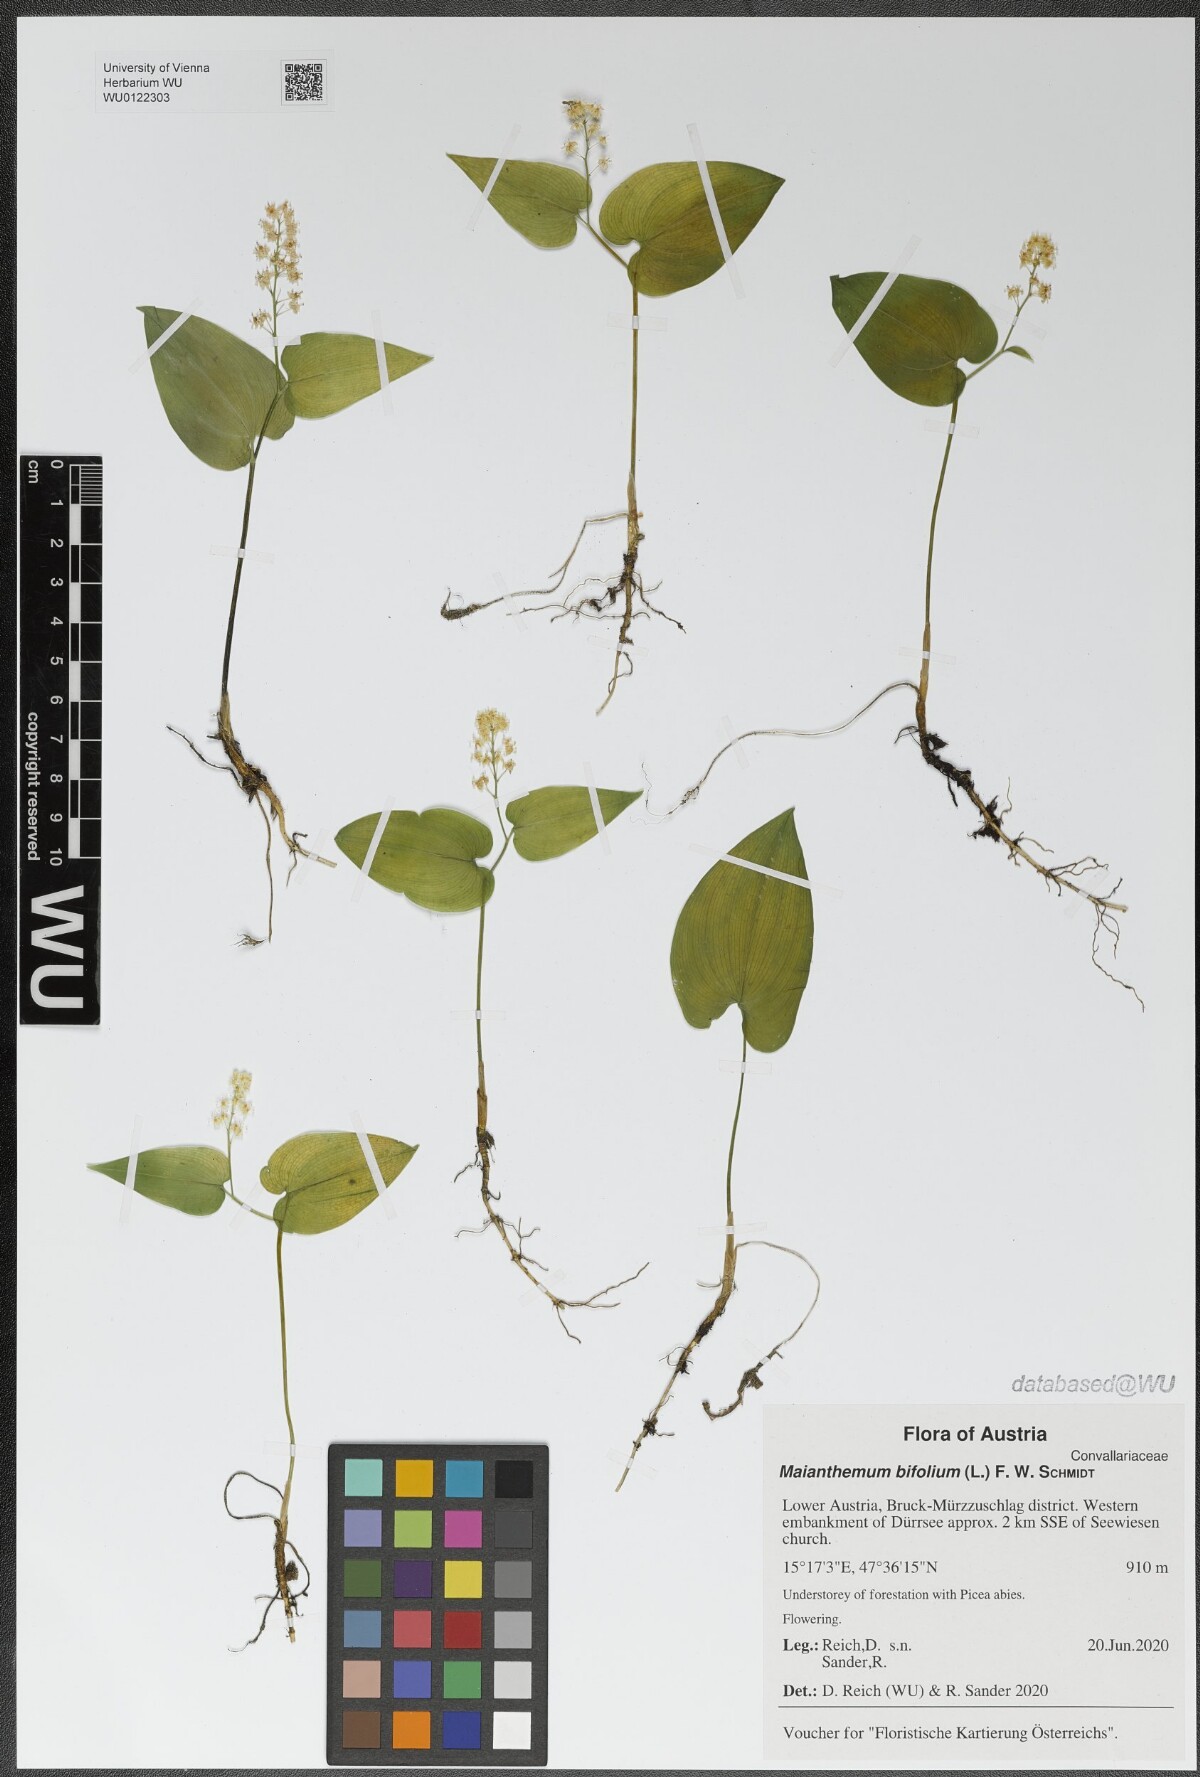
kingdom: Plantae
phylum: Tracheophyta
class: Liliopsida
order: Asparagales
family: Asparagaceae
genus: Maianthemum
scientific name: Maianthemum bifolium
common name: May lily
